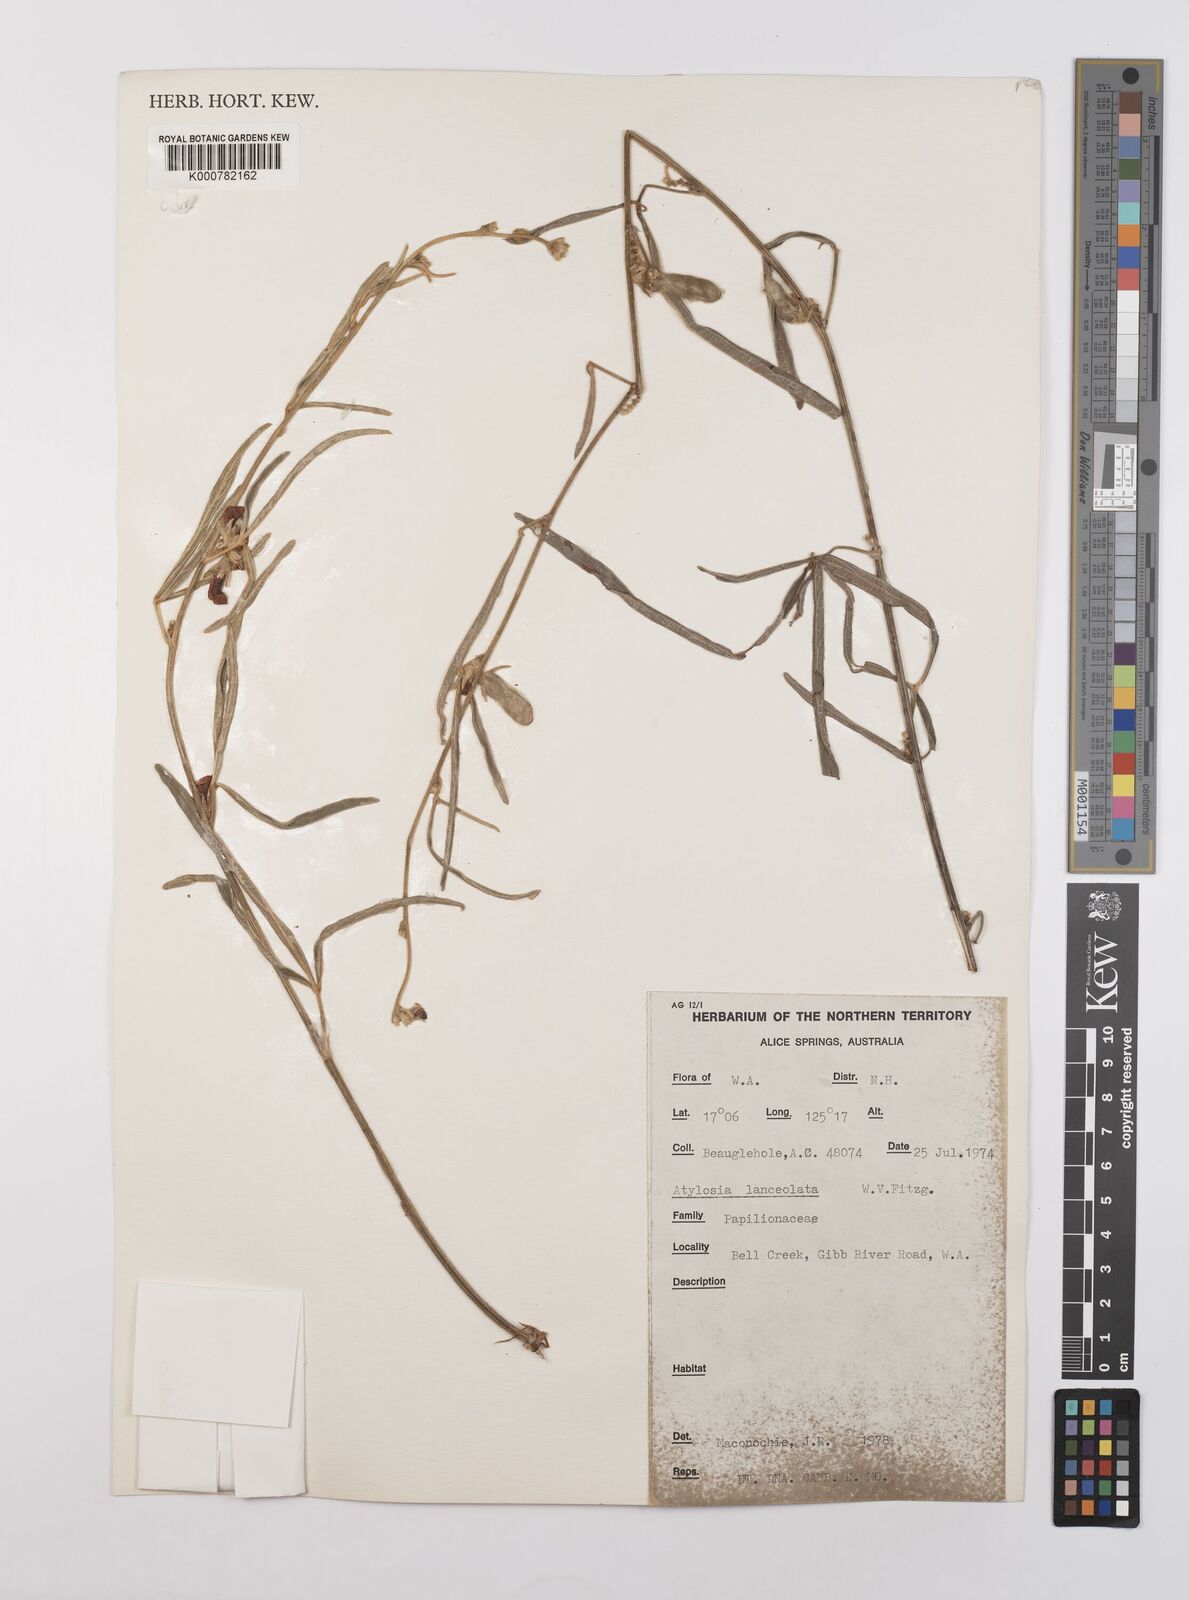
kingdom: Plantae
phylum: Tracheophyta
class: Magnoliopsida
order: Fabales
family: Fabaceae
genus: Cajanus
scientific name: Cajanus lanceolatus
